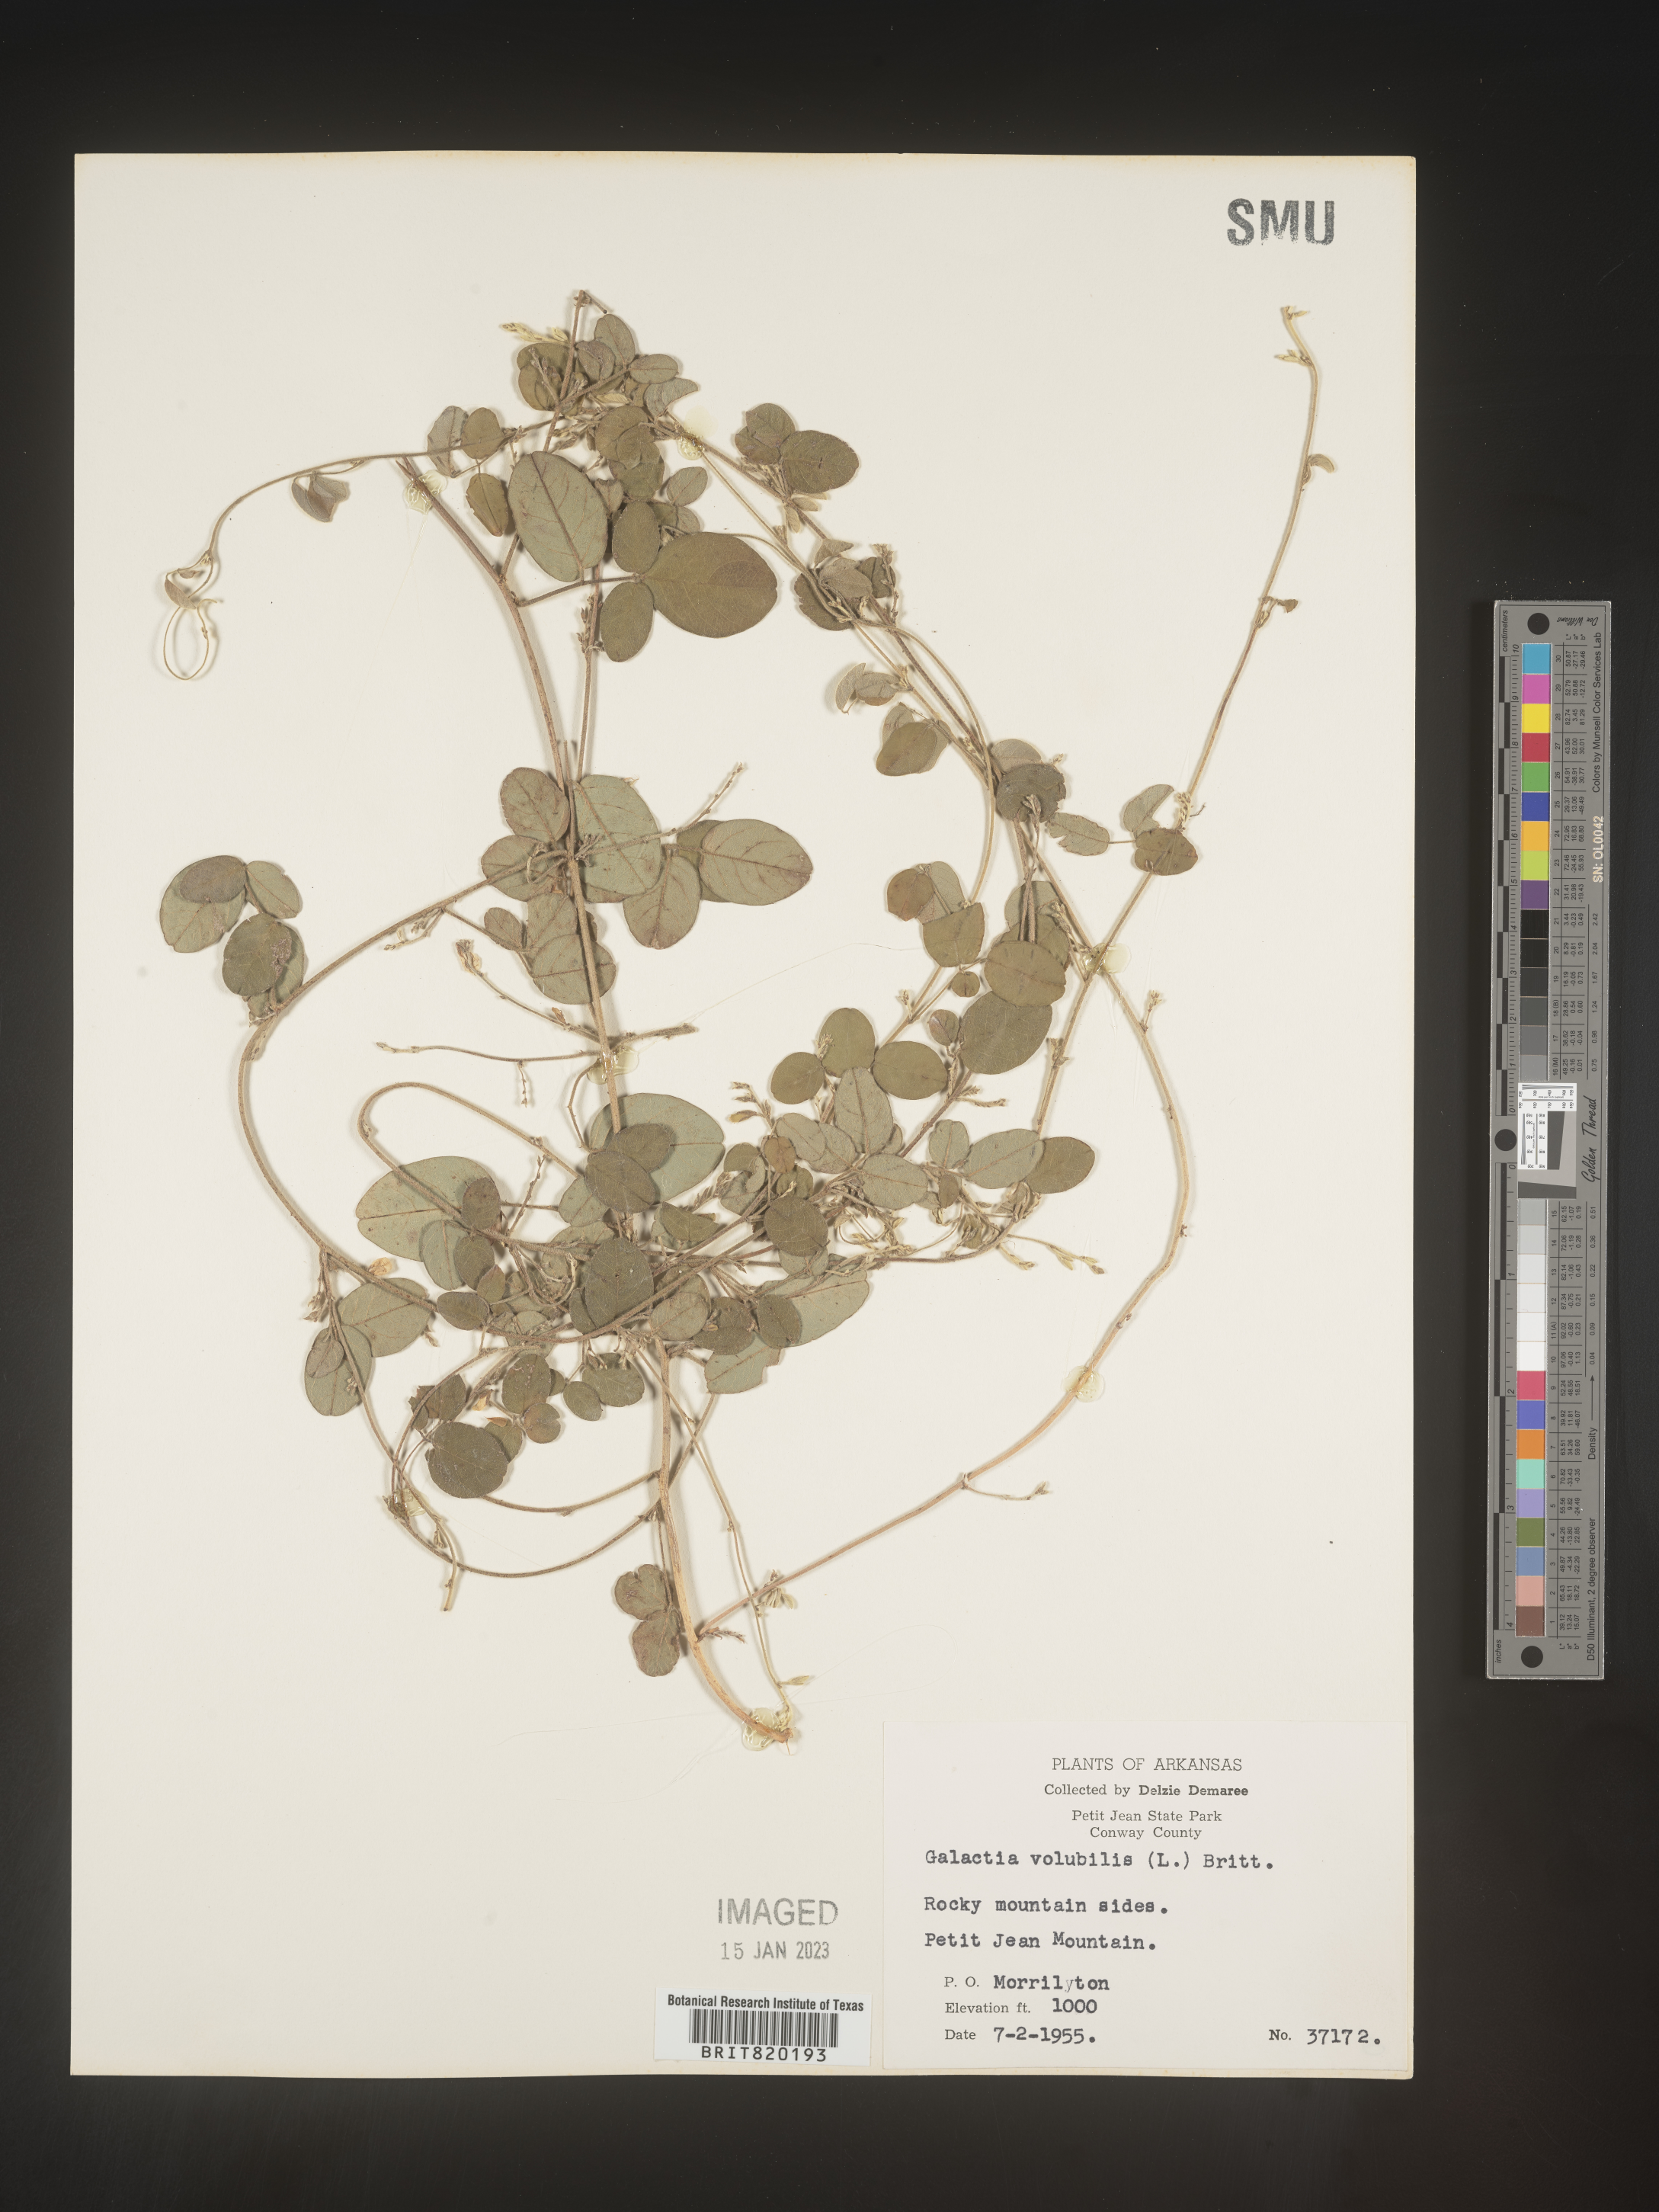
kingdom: Plantae
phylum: Tracheophyta
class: Magnoliopsida
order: Fabales
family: Fabaceae
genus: Galactia
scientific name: Galactia volubilis
